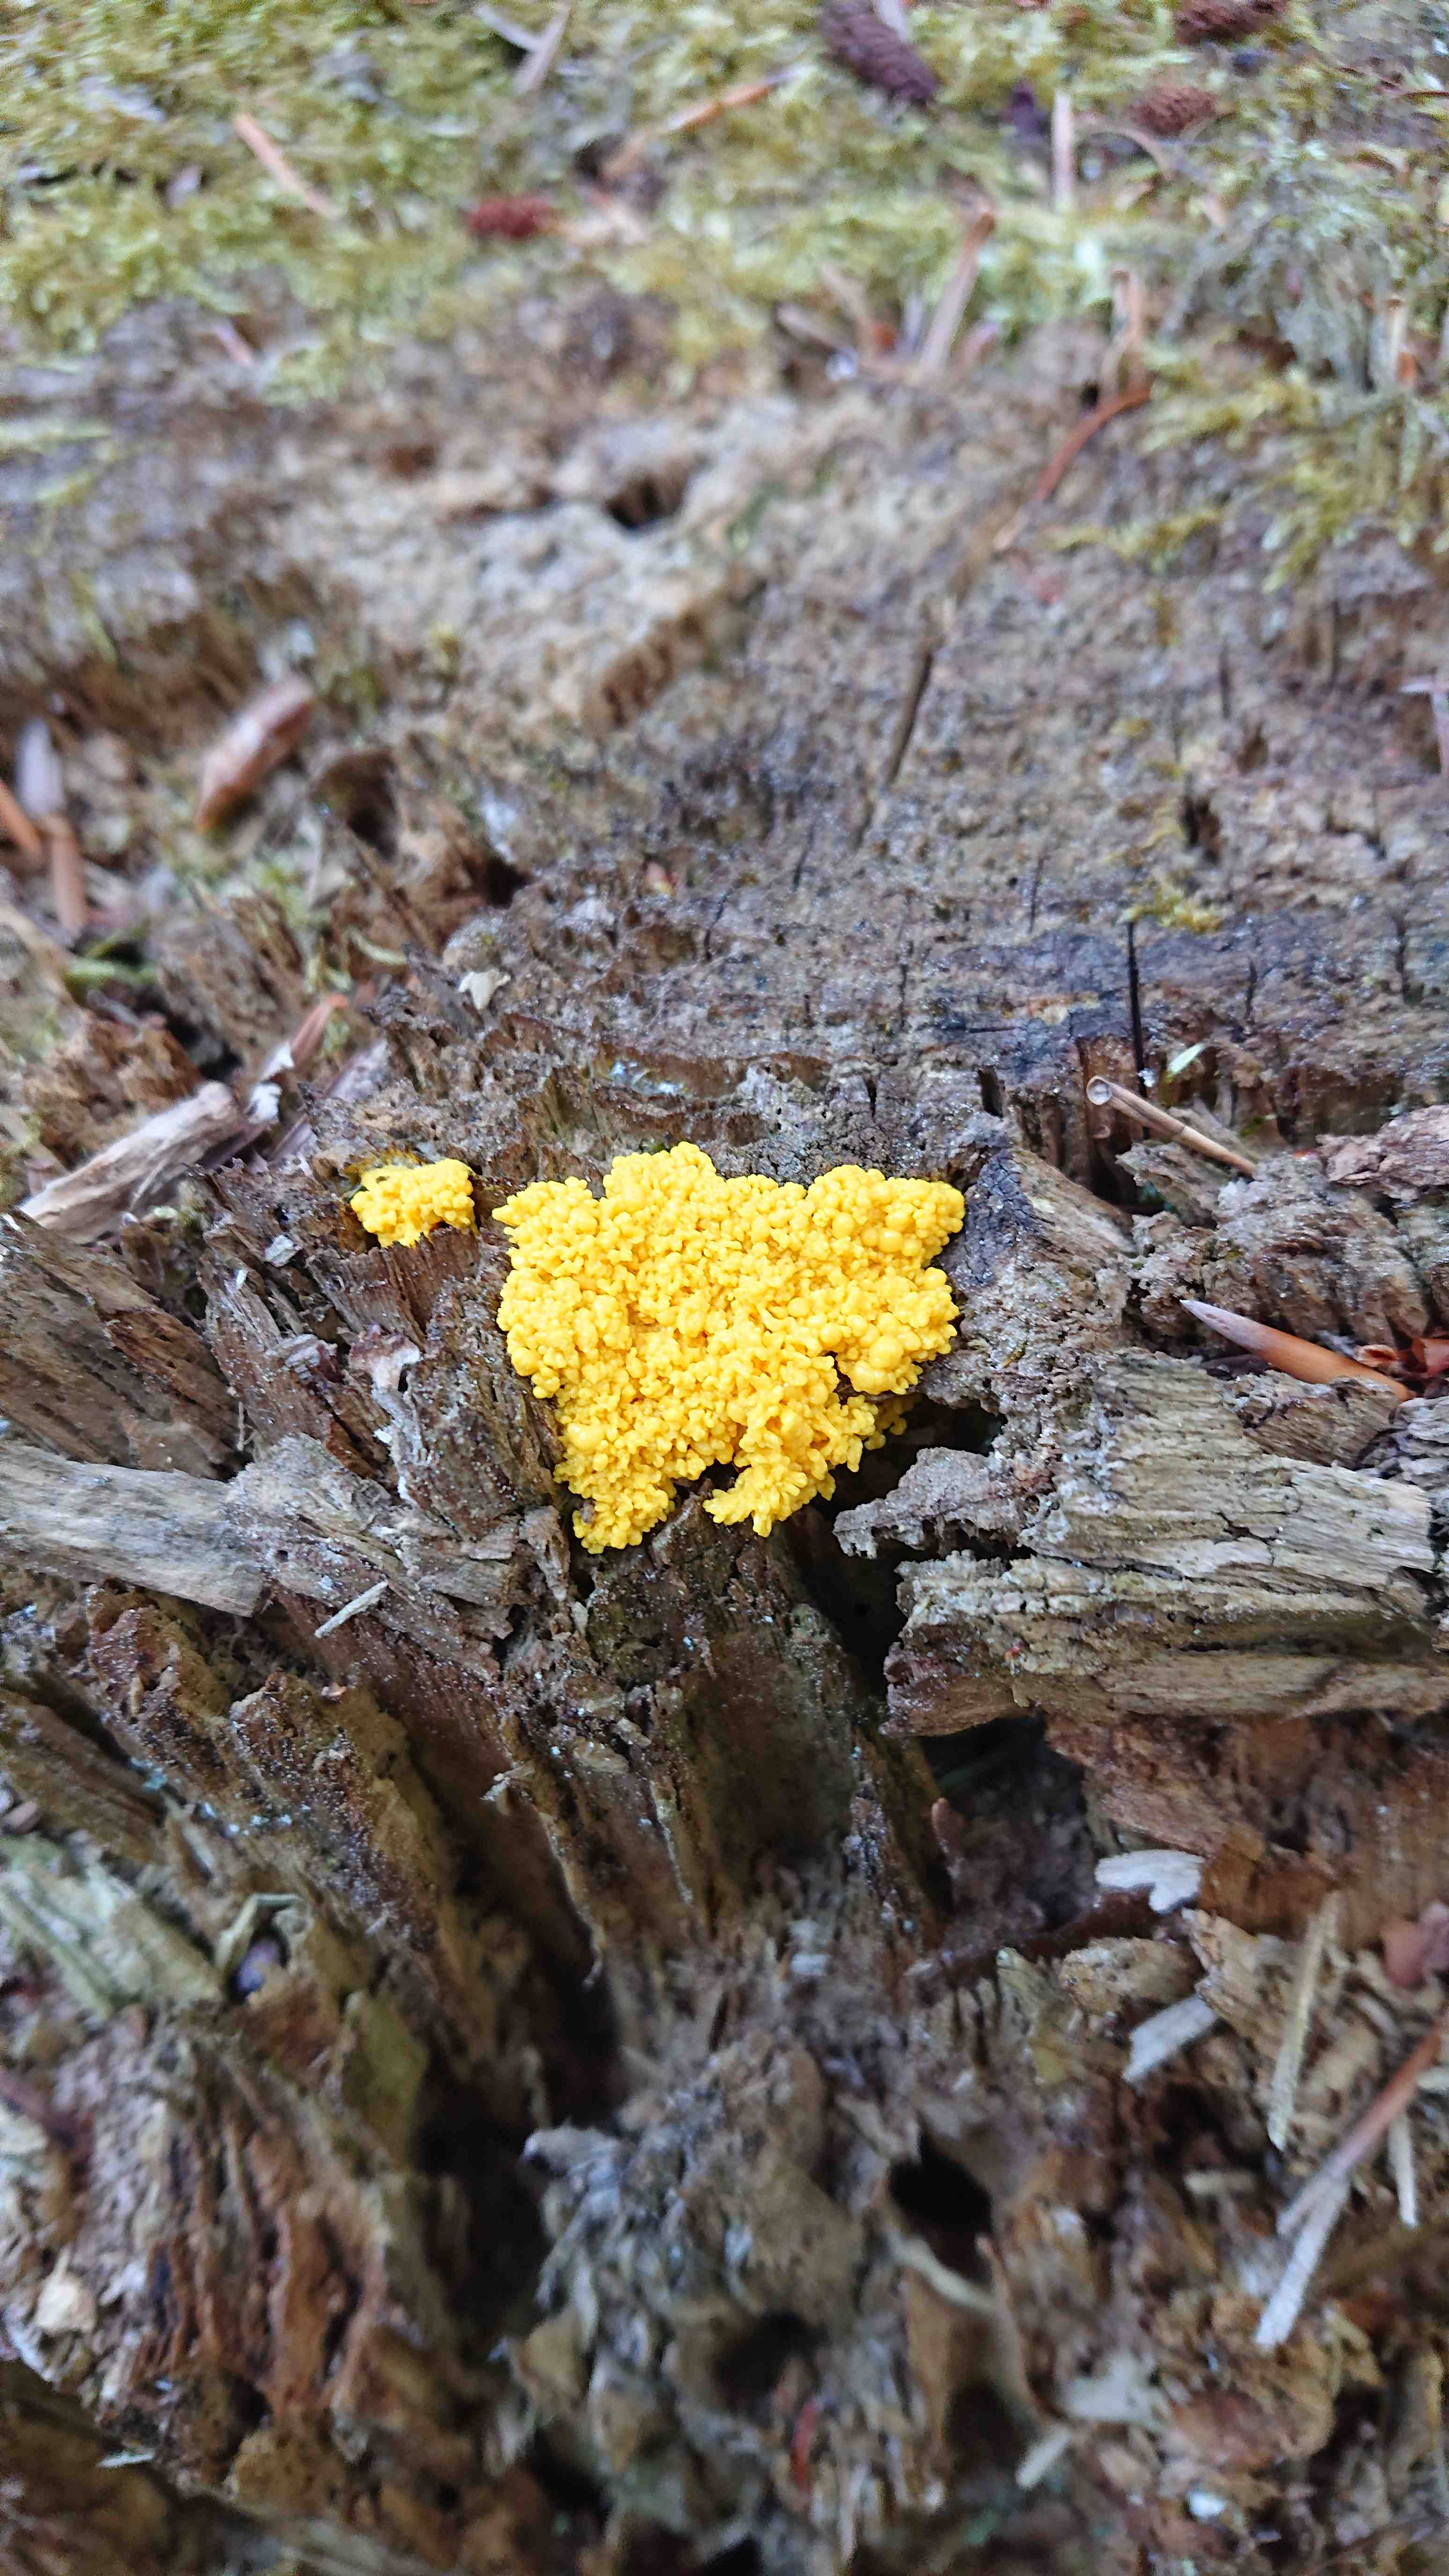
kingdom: Protozoa
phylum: Mycetozoa
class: Myxomycetes
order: Physarales
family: Physaraceae
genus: Fuligo
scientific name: Fuligo septica
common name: gul troldsmør
